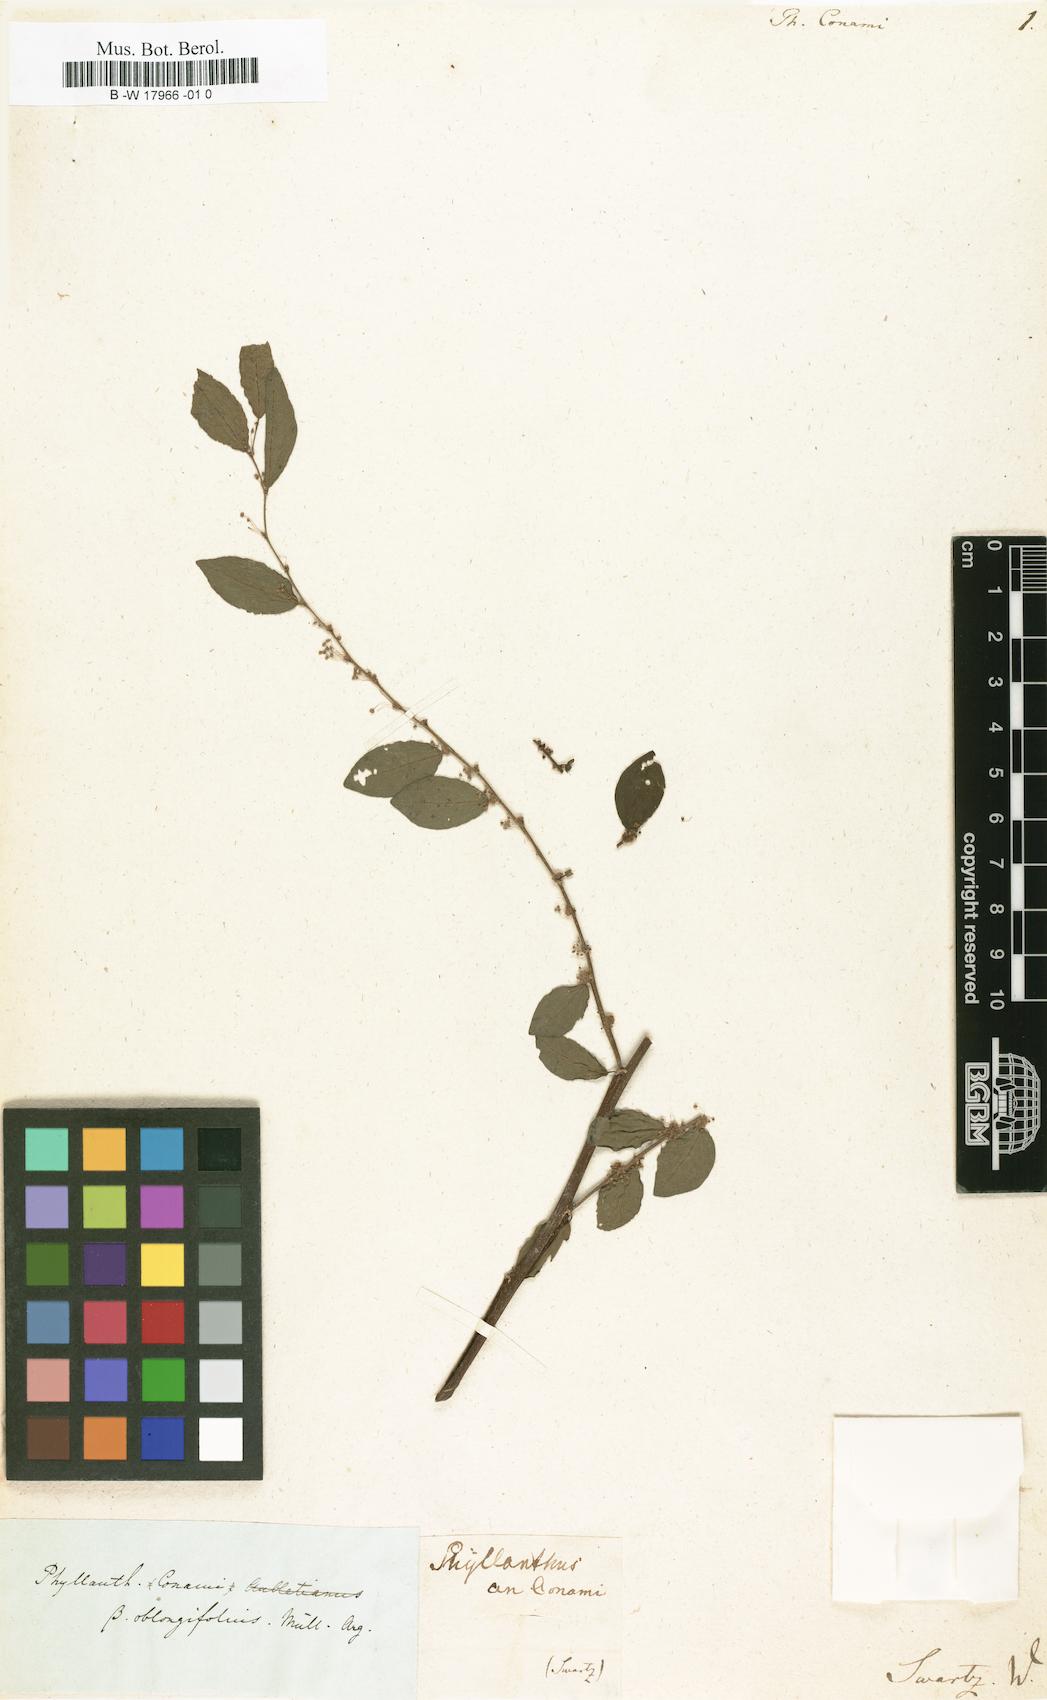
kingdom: Plantae
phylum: Tracheophyta
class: Magnoliopsida
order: Malpighiales
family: Phyllanthaceae
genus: Phyllanthus
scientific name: Phyllanthus brasiliensis
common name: Fish-poison
